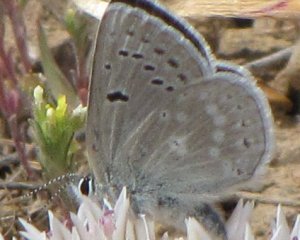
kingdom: Animalia
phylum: Arthropoda
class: Insecta
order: Lepidoptera
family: Lycaenidae
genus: Icaricia
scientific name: Icaricia icarioides
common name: Boisduval's Blue
